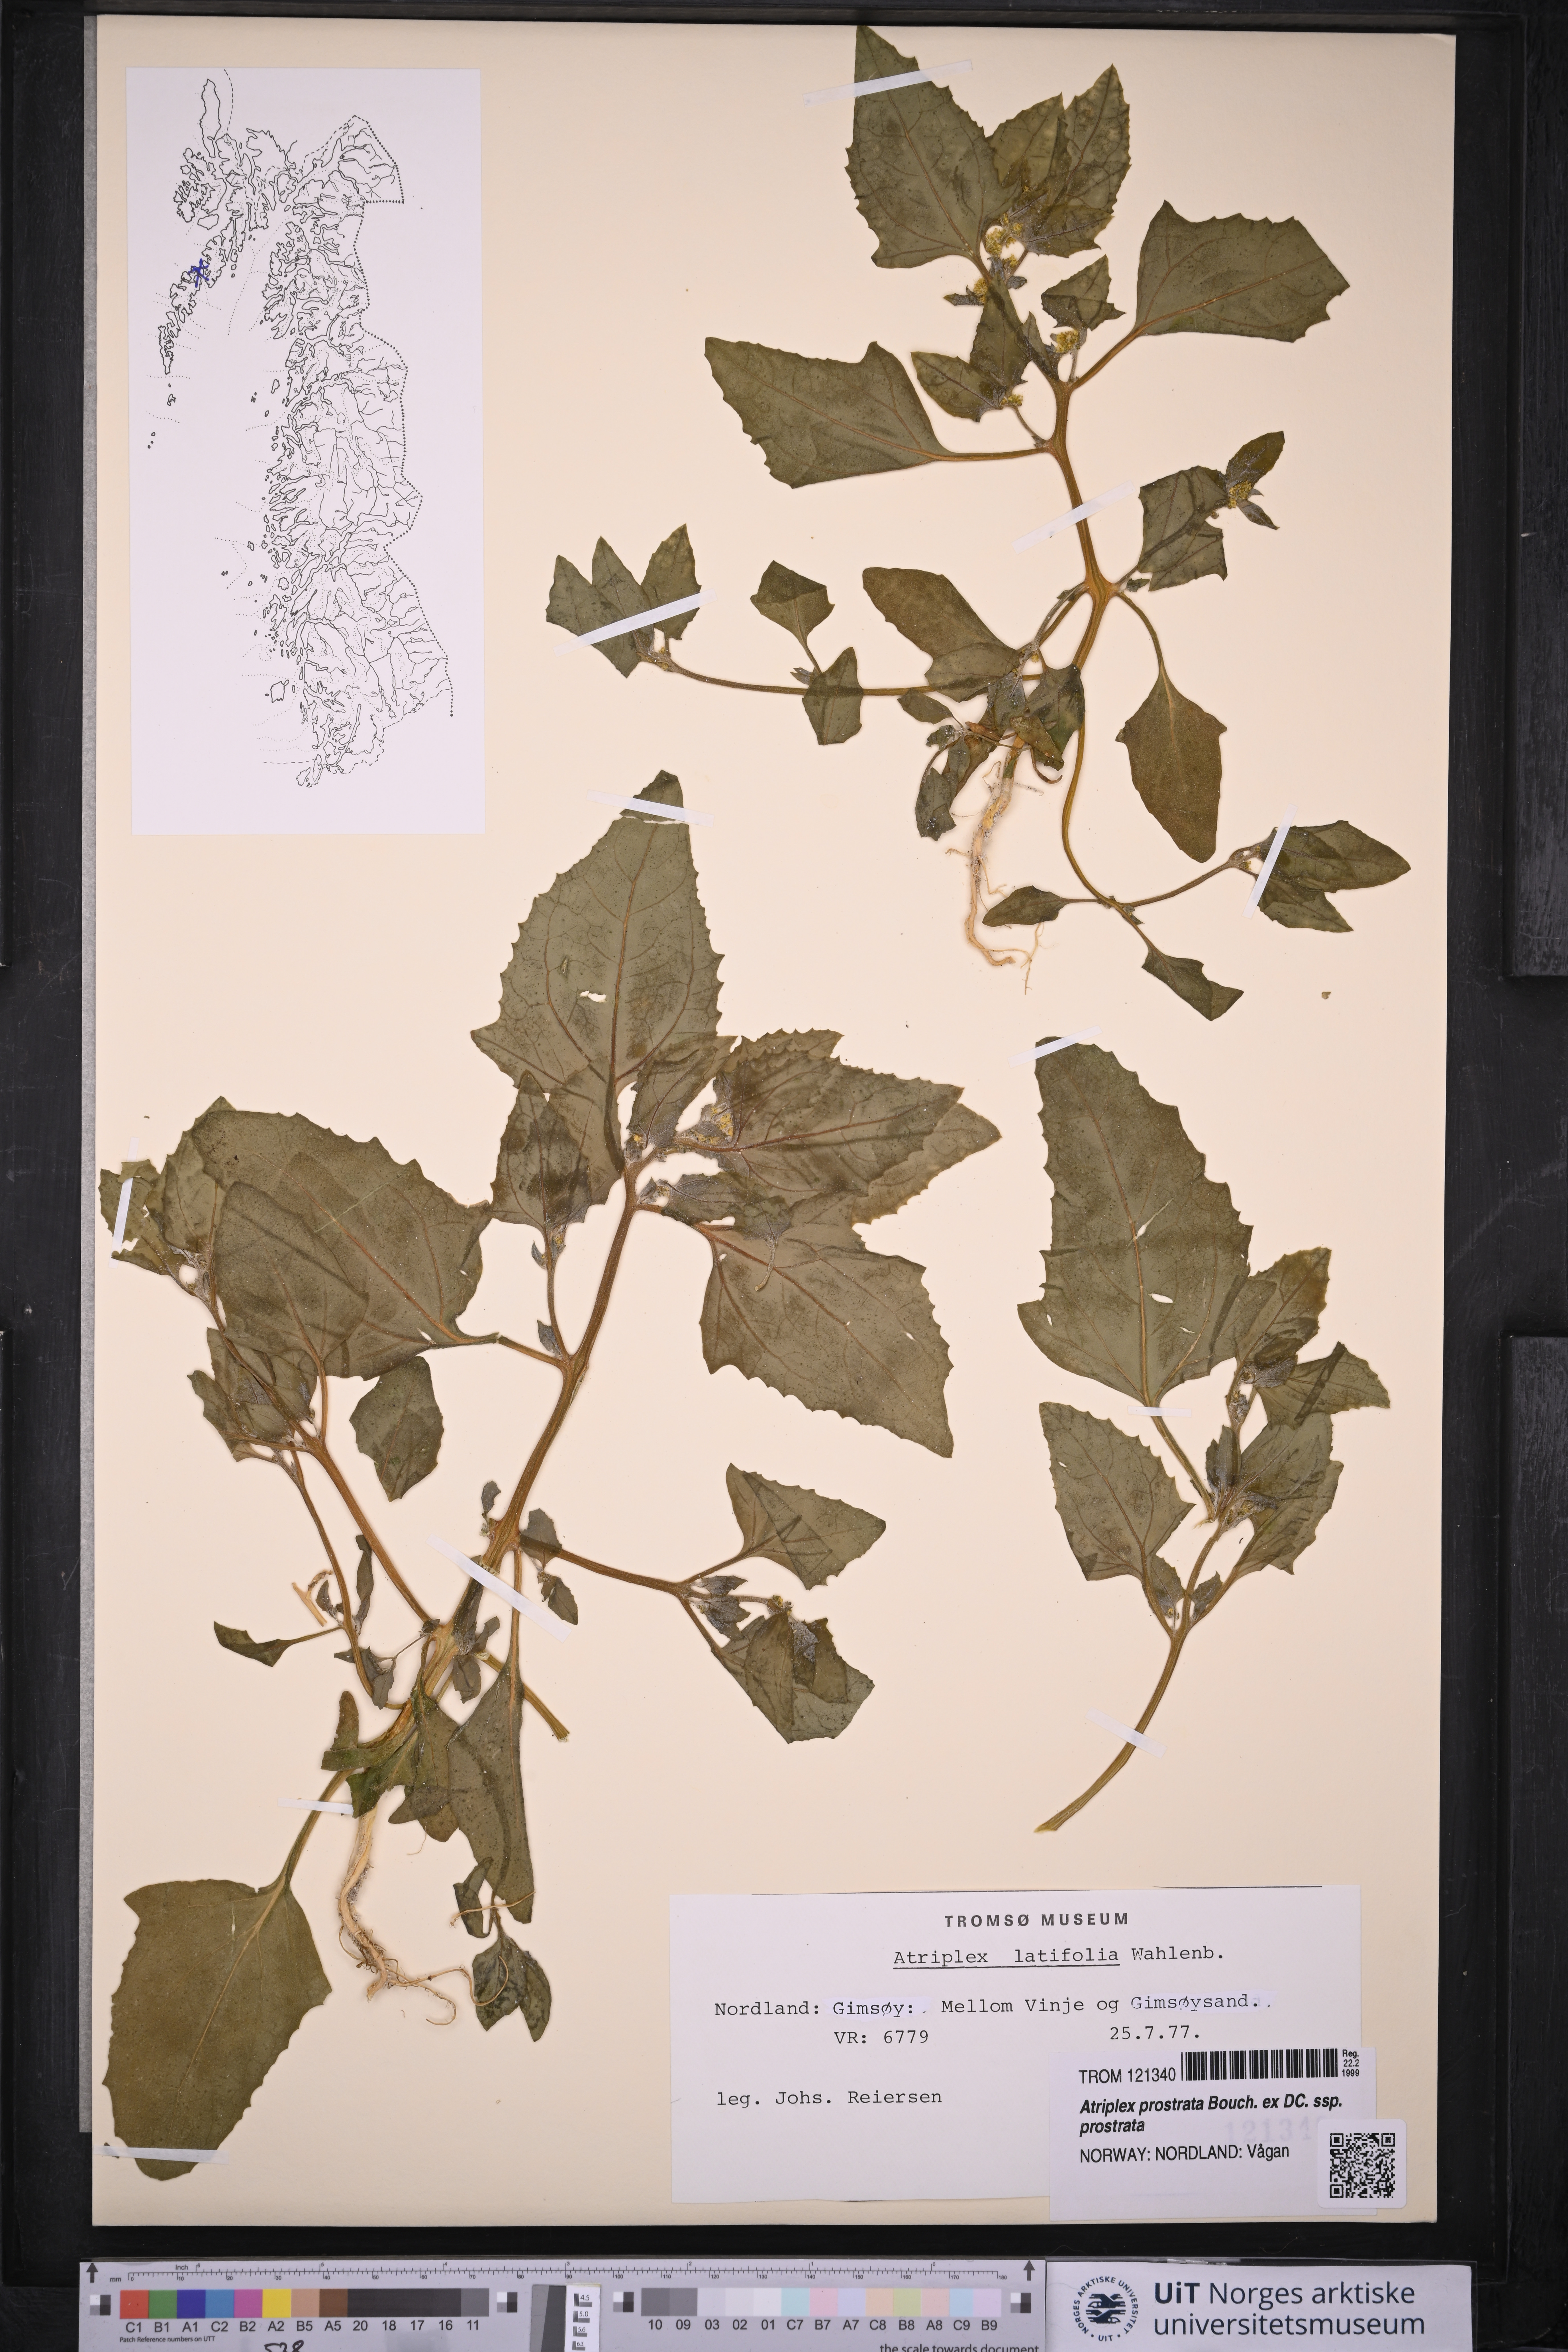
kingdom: Plantae
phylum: Tracheophyta
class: Magnoliopsida
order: Caryophyllales
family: Amaranthaceae
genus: Atriplex
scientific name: Atriplex prostrata
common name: Spear-leaved orache
